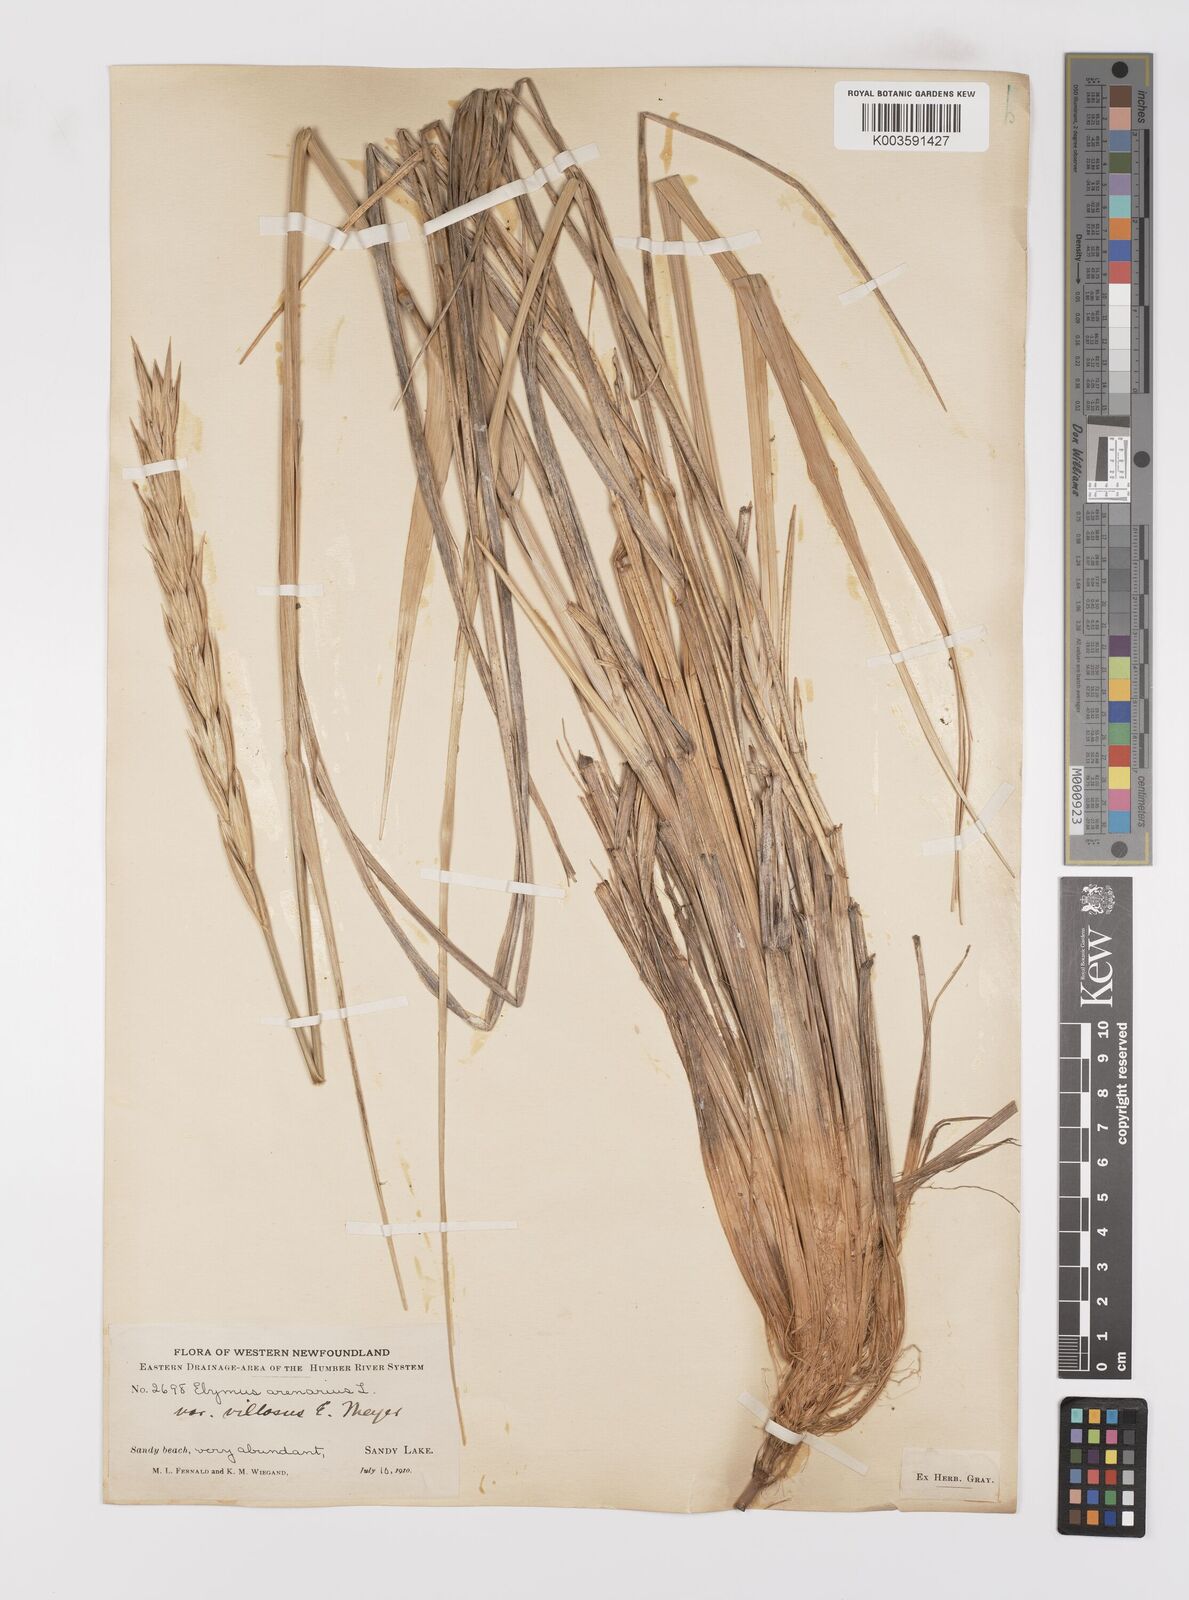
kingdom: Plantae
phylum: Tracheophyta
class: Liliopsida
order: Poales
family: Poaceae
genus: Leymus
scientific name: Leymus mollis
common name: American dune grass
